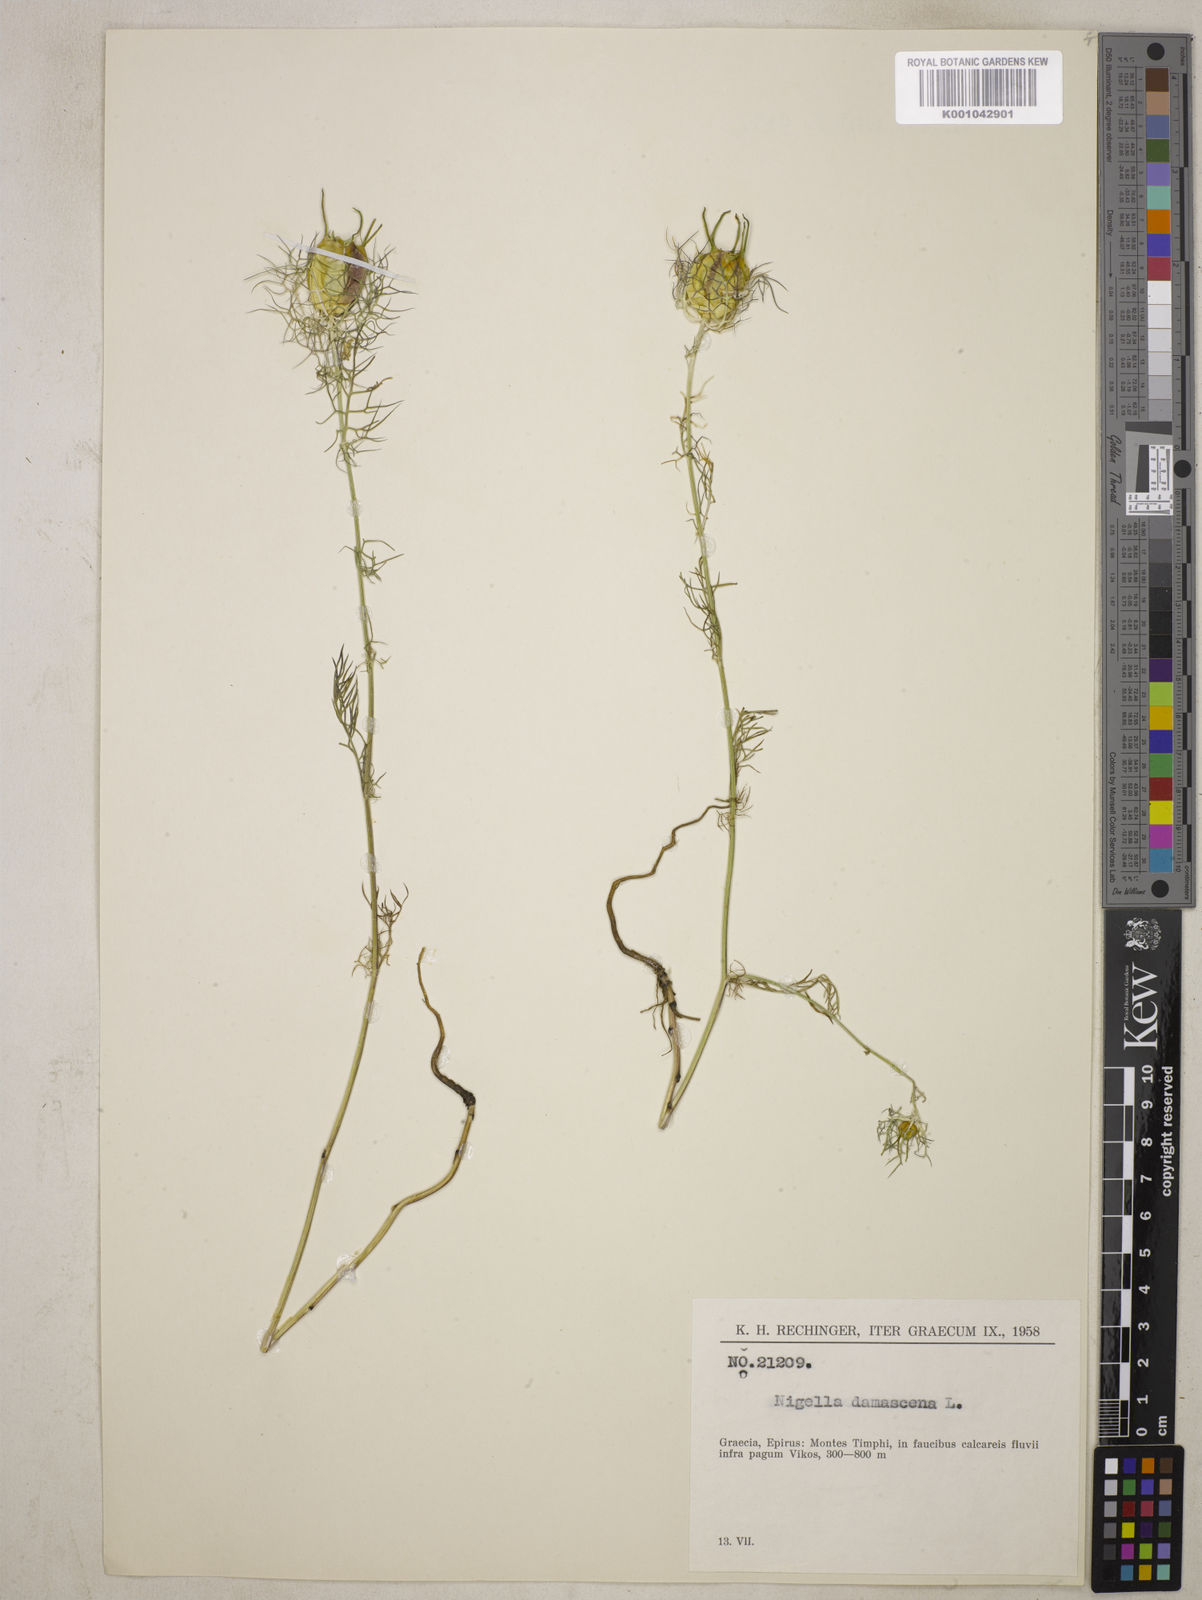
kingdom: Plantae
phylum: Tracheophyta
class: Magnoliopsida
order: Ranunculales
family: Ranunculaceae
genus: Nigella
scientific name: Nigella damascena
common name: Love-in-a-mist
